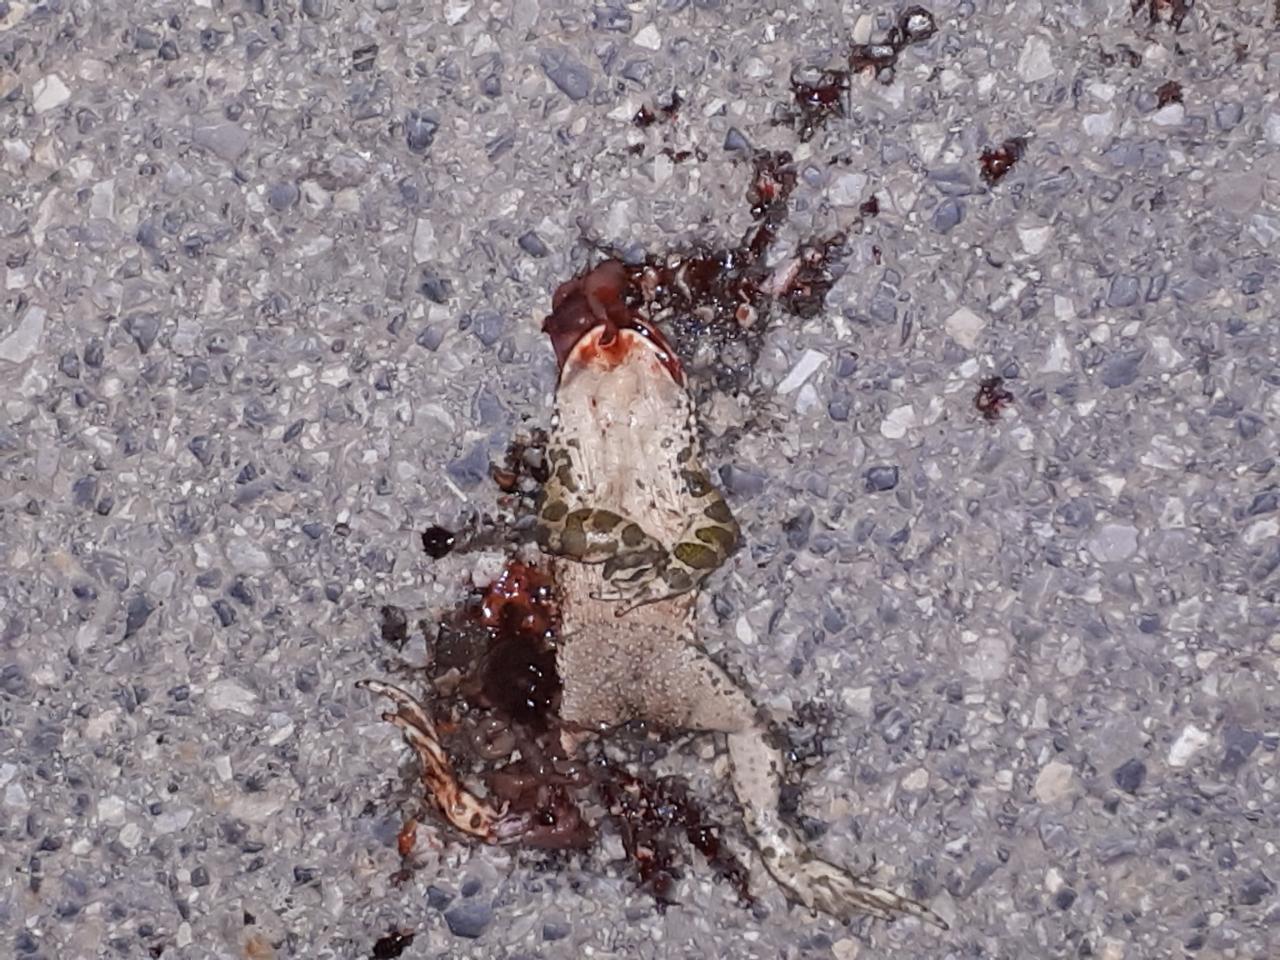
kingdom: Animalia
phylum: Chordata
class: Amphibia
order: Anura
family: Bufonidae
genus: Bufotes
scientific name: Bufotes viridis
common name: European green toad
